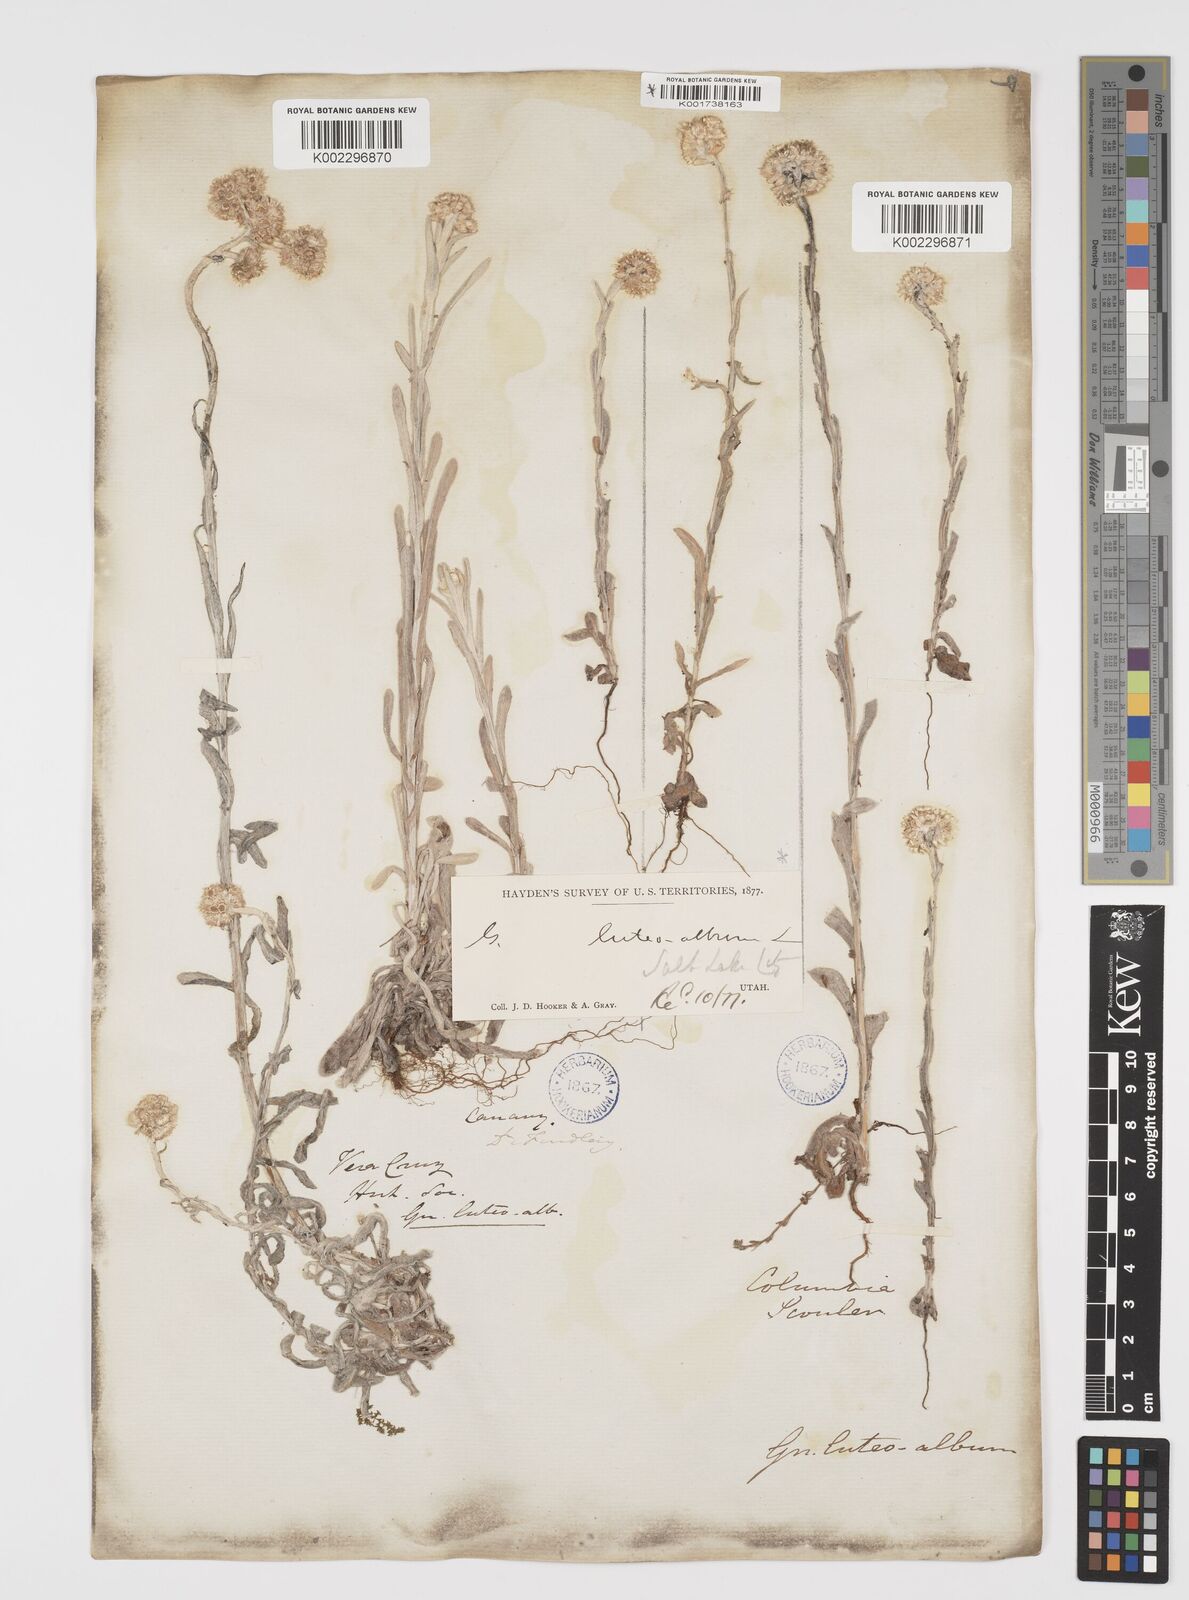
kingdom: Plantae
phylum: Tracheophyta
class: Magnoliopsida
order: Asterales
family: Asteraceae
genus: Helichrysum
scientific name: Helichrysum luteoalbum
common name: Daisy
